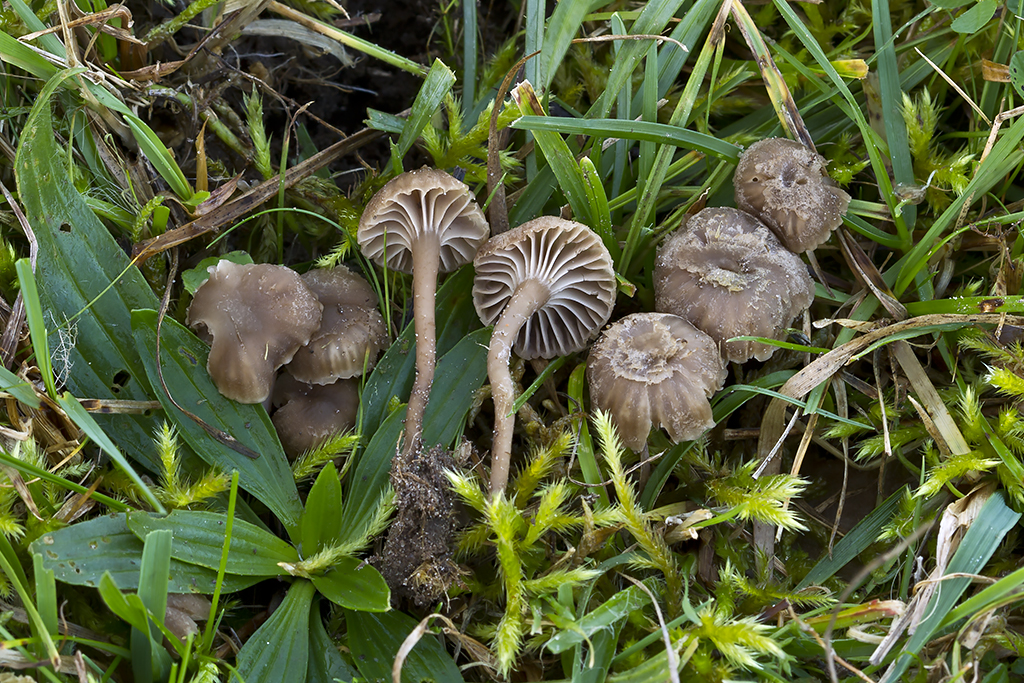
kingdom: Fungi
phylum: Basidiomycota
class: Agaricomycetes
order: Agaricales
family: Clavariaceae
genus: Hodophilus
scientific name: Hodophilus
